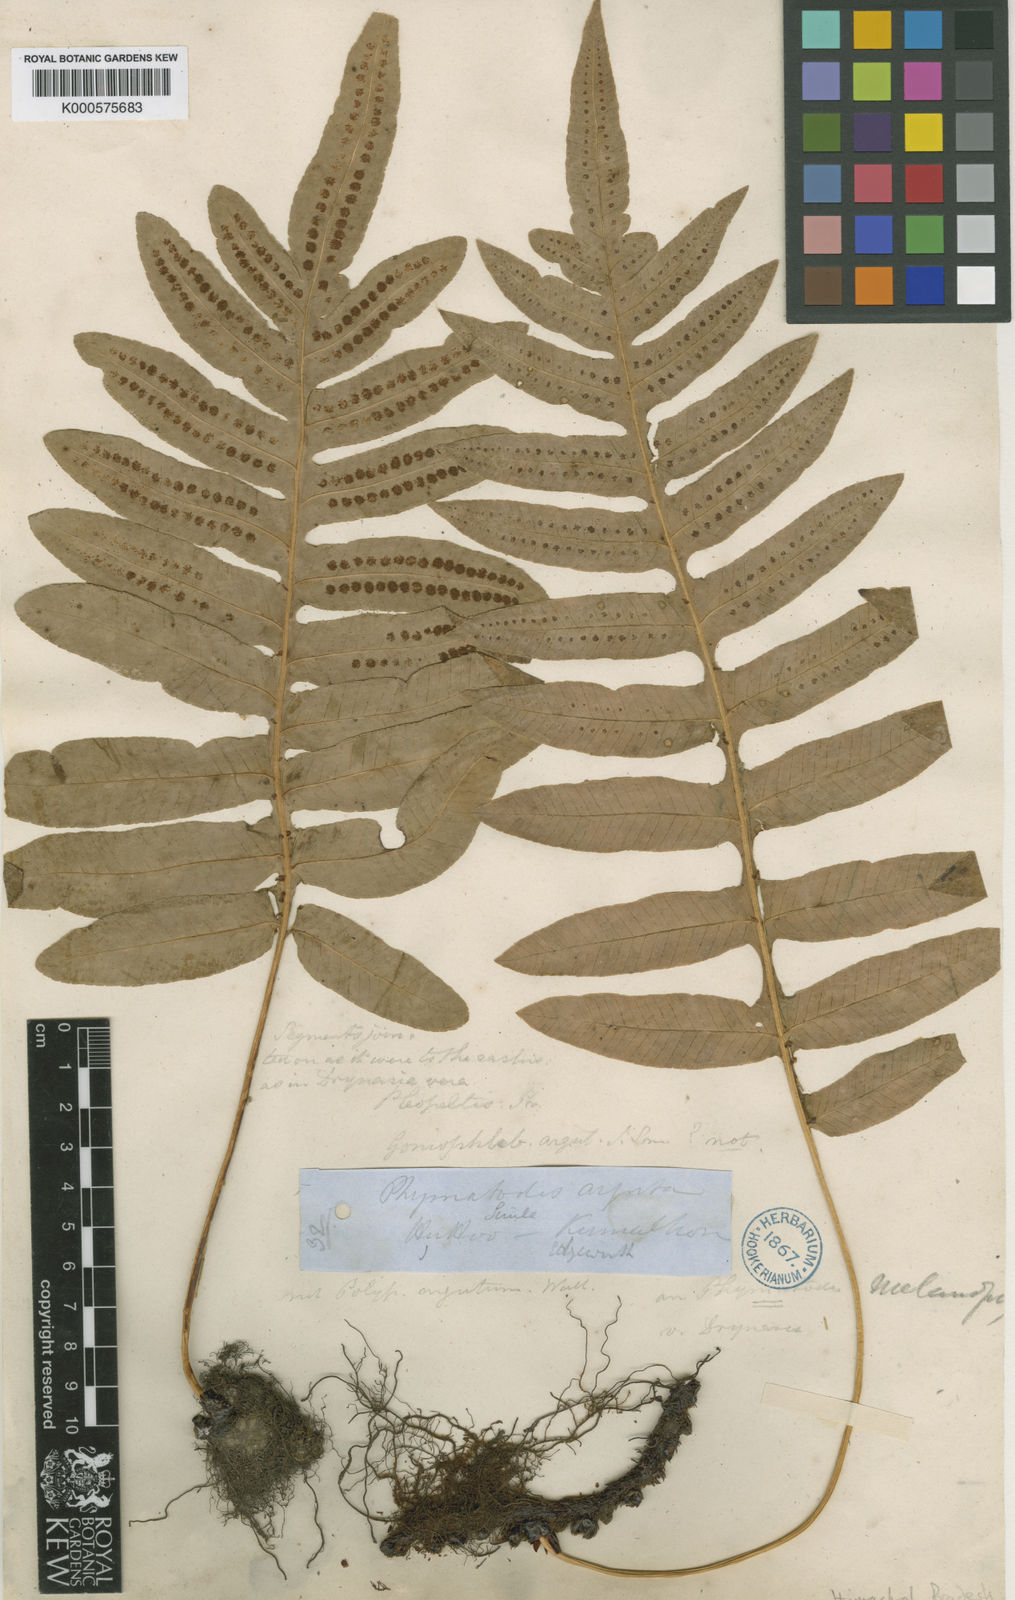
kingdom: Plantae
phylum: Tracheophyta
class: Polypodiopsida
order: Polypodiales
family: Polypodiaceae
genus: Selliguea
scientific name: Selliguea ebenipes
